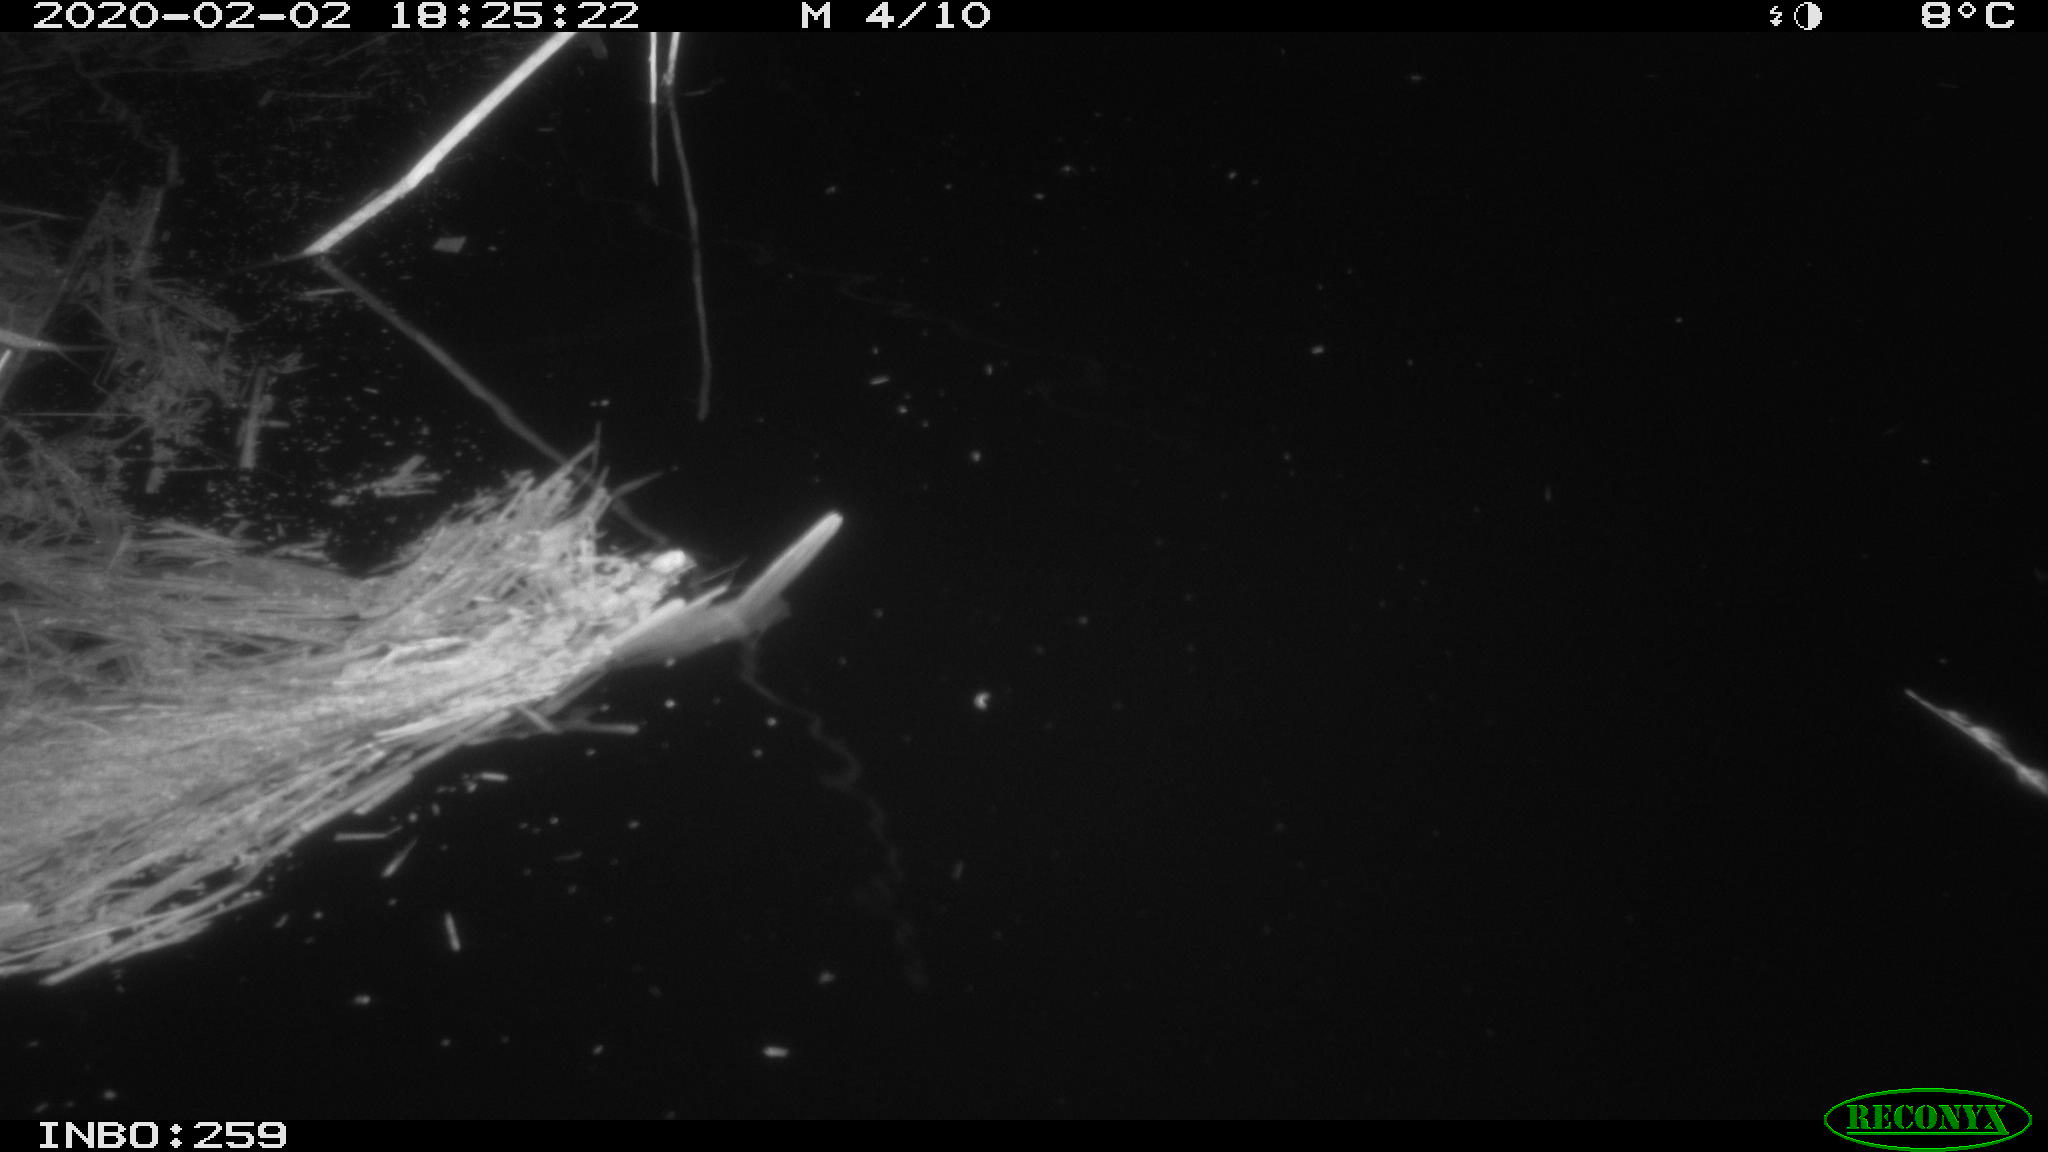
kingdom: Animalia
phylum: Chordata
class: Aves
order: Gruiformes
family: Rallidae
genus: Gallinula
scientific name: Gallinula chloropus
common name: Common moorhen
